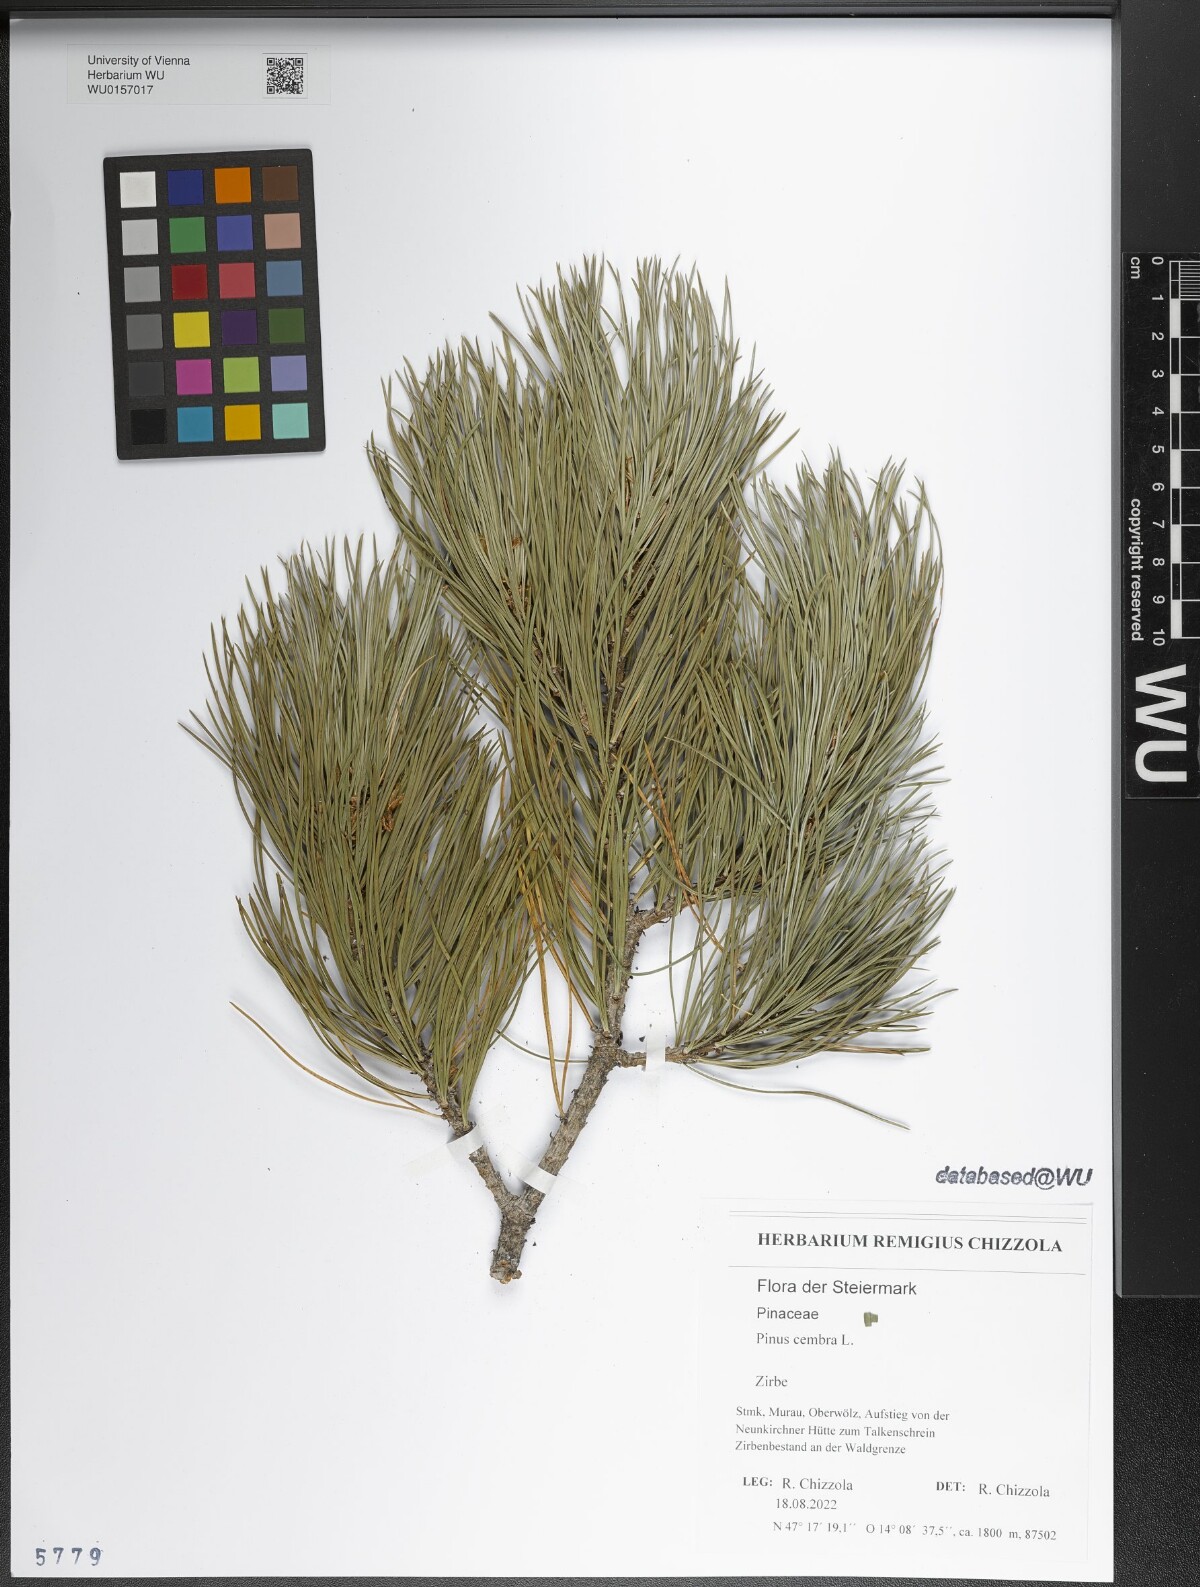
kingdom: Plantae
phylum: Tracheophyta
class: Pinopsida
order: Pinales
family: Pinaceae
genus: Pinus
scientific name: Pinus cembra
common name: Arolla pine
